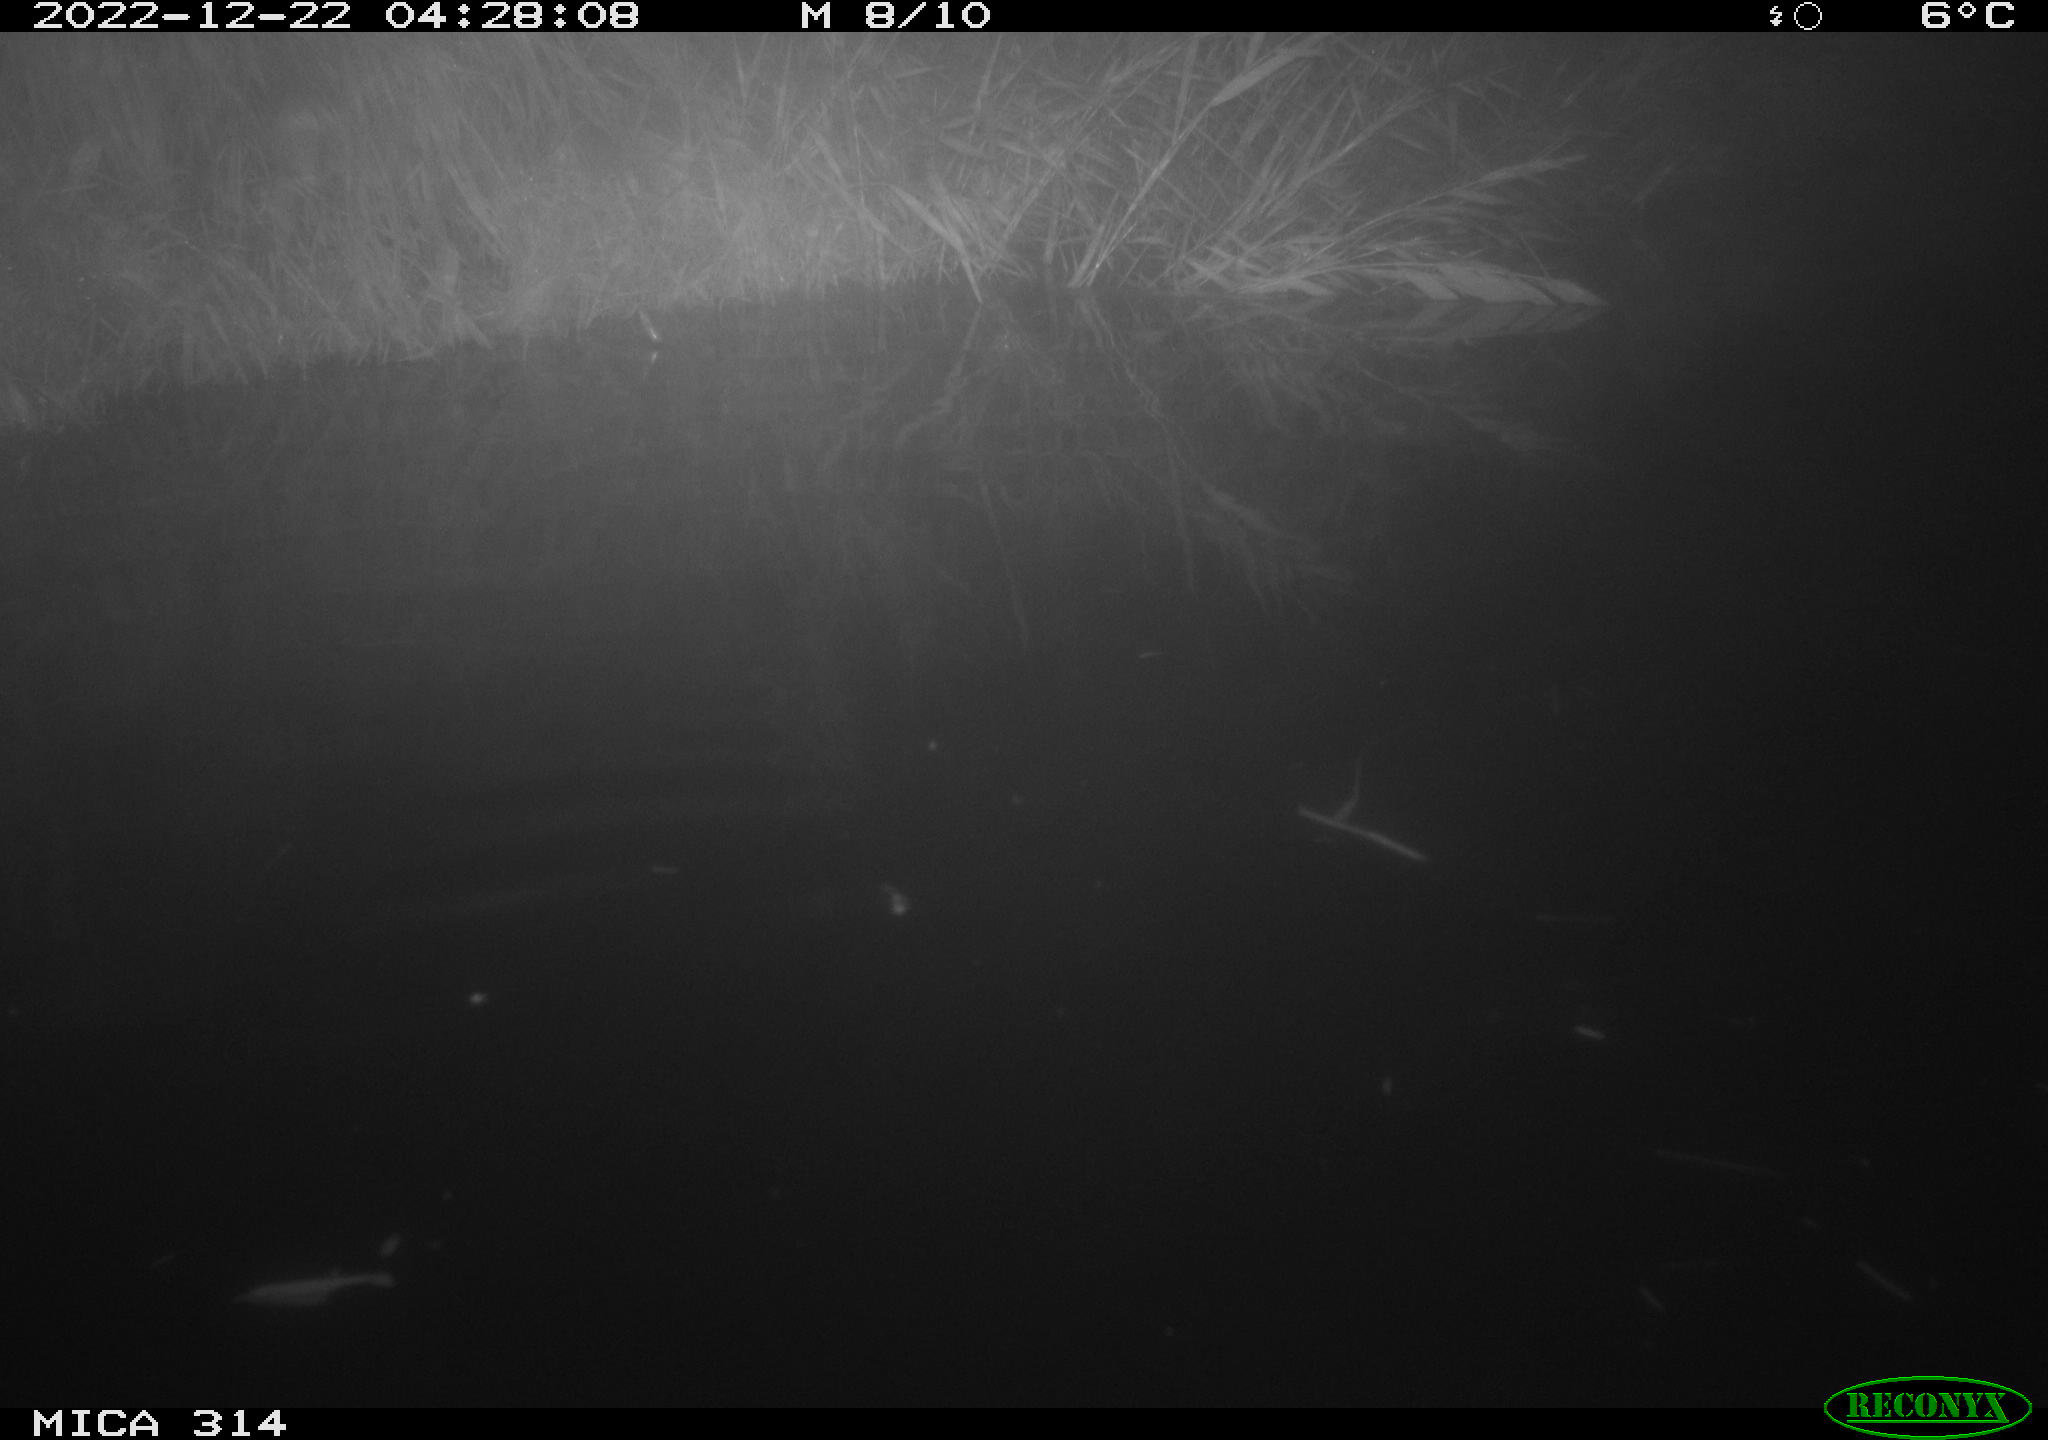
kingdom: Animalia
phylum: Chordata
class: Mammalia
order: Rodentia
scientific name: Rodentia
